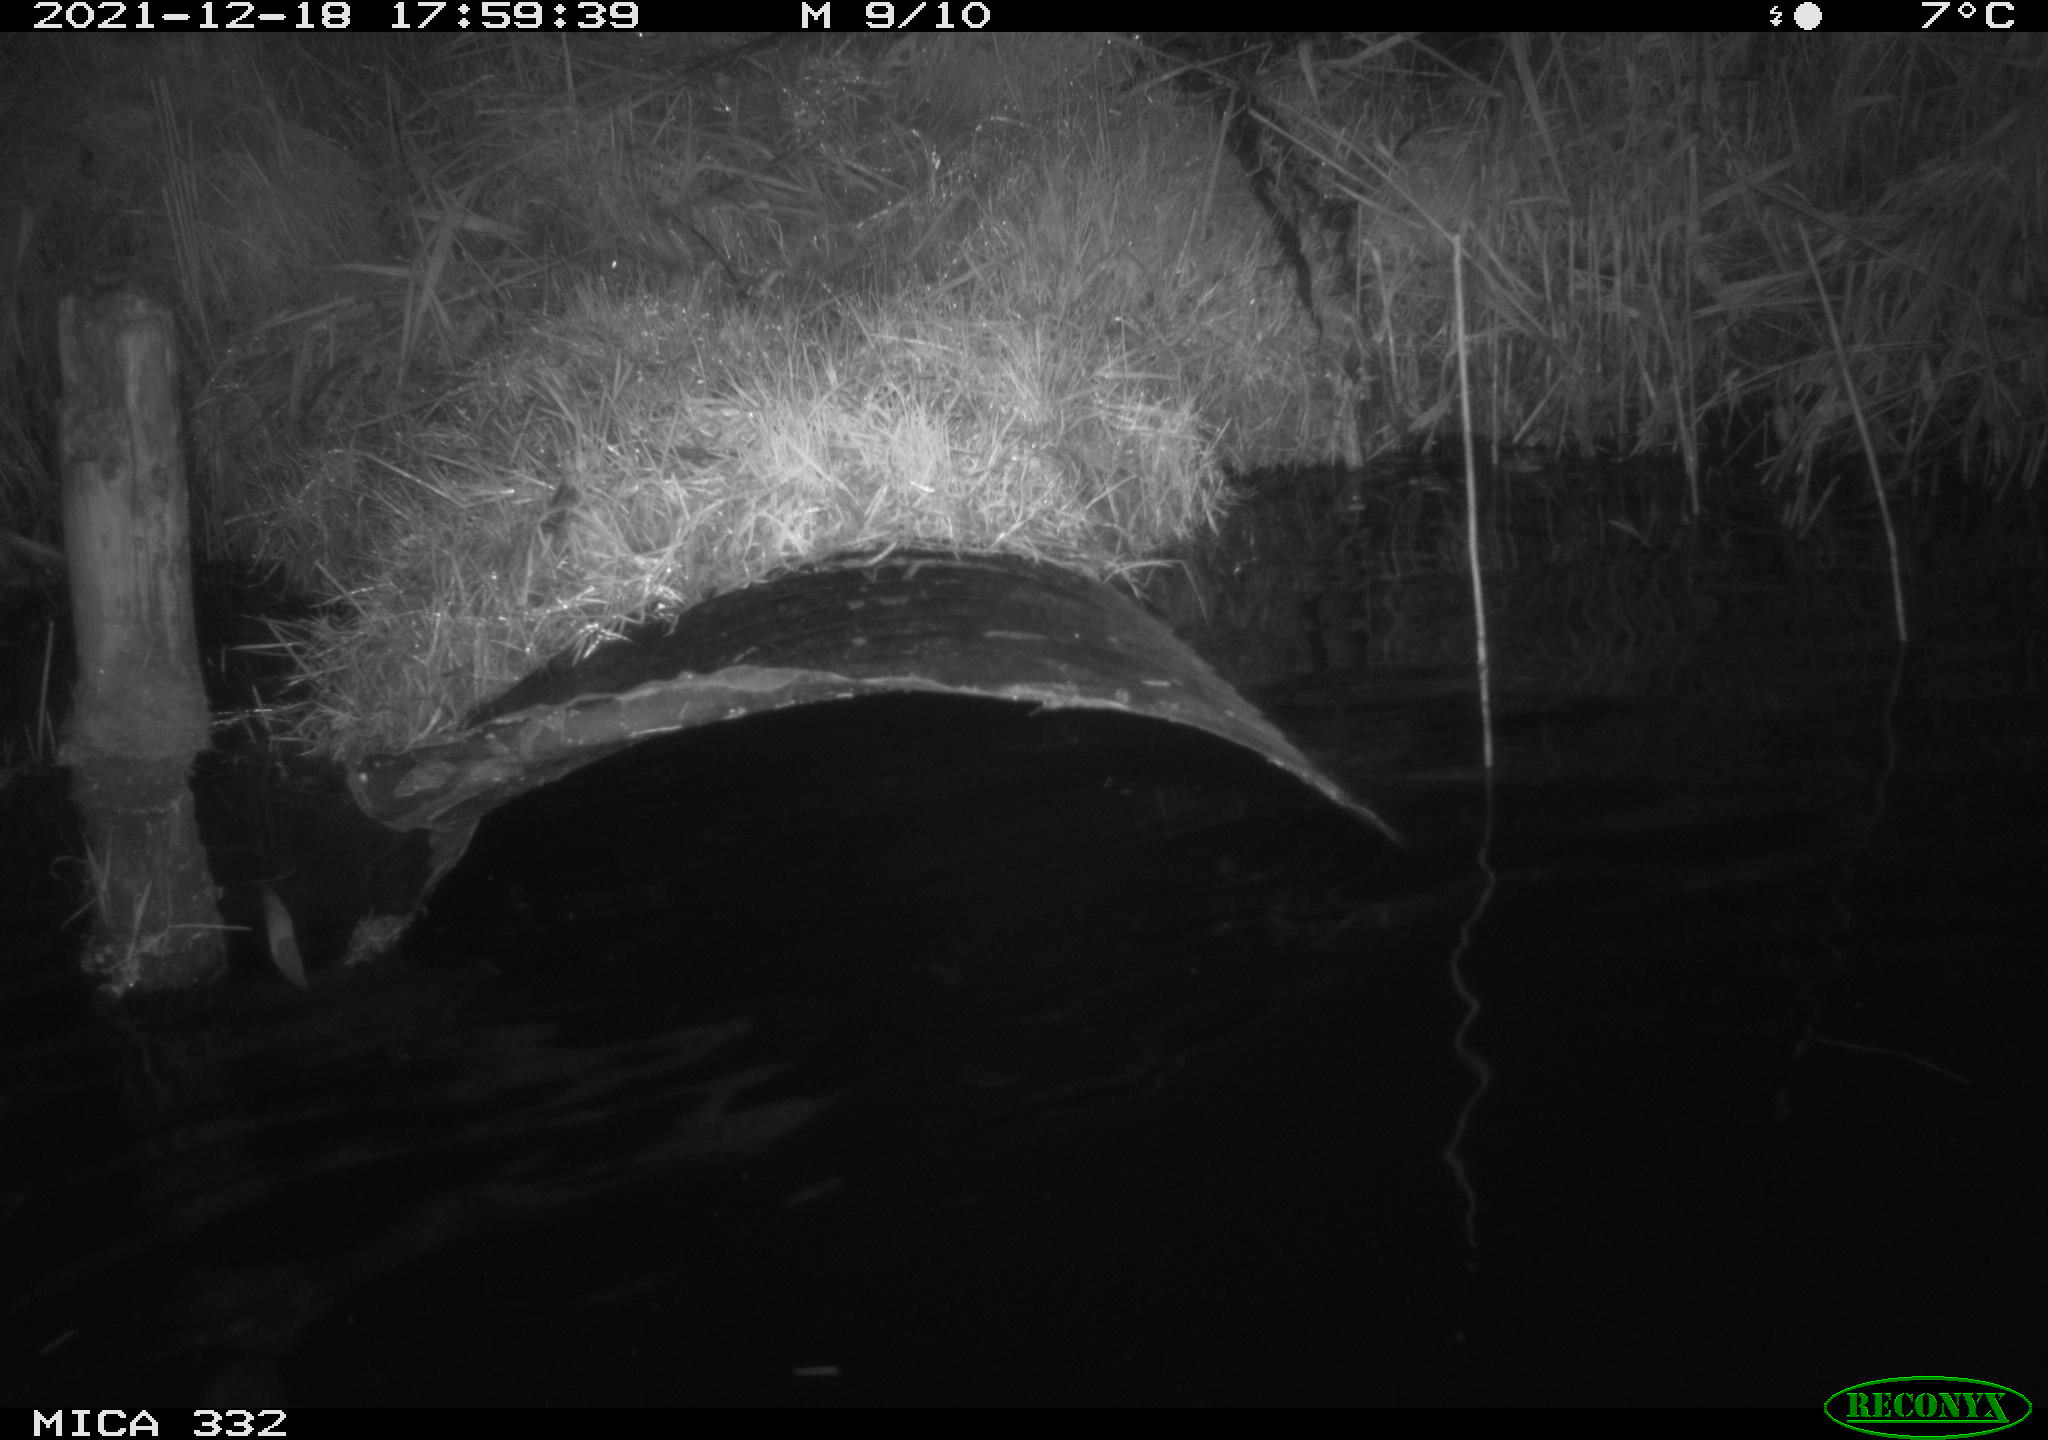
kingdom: Animalia
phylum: Chordata
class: Aves
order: Anseriformes
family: Anatidae
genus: Cygnus
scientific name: Cygnus olor
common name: Mute swan
